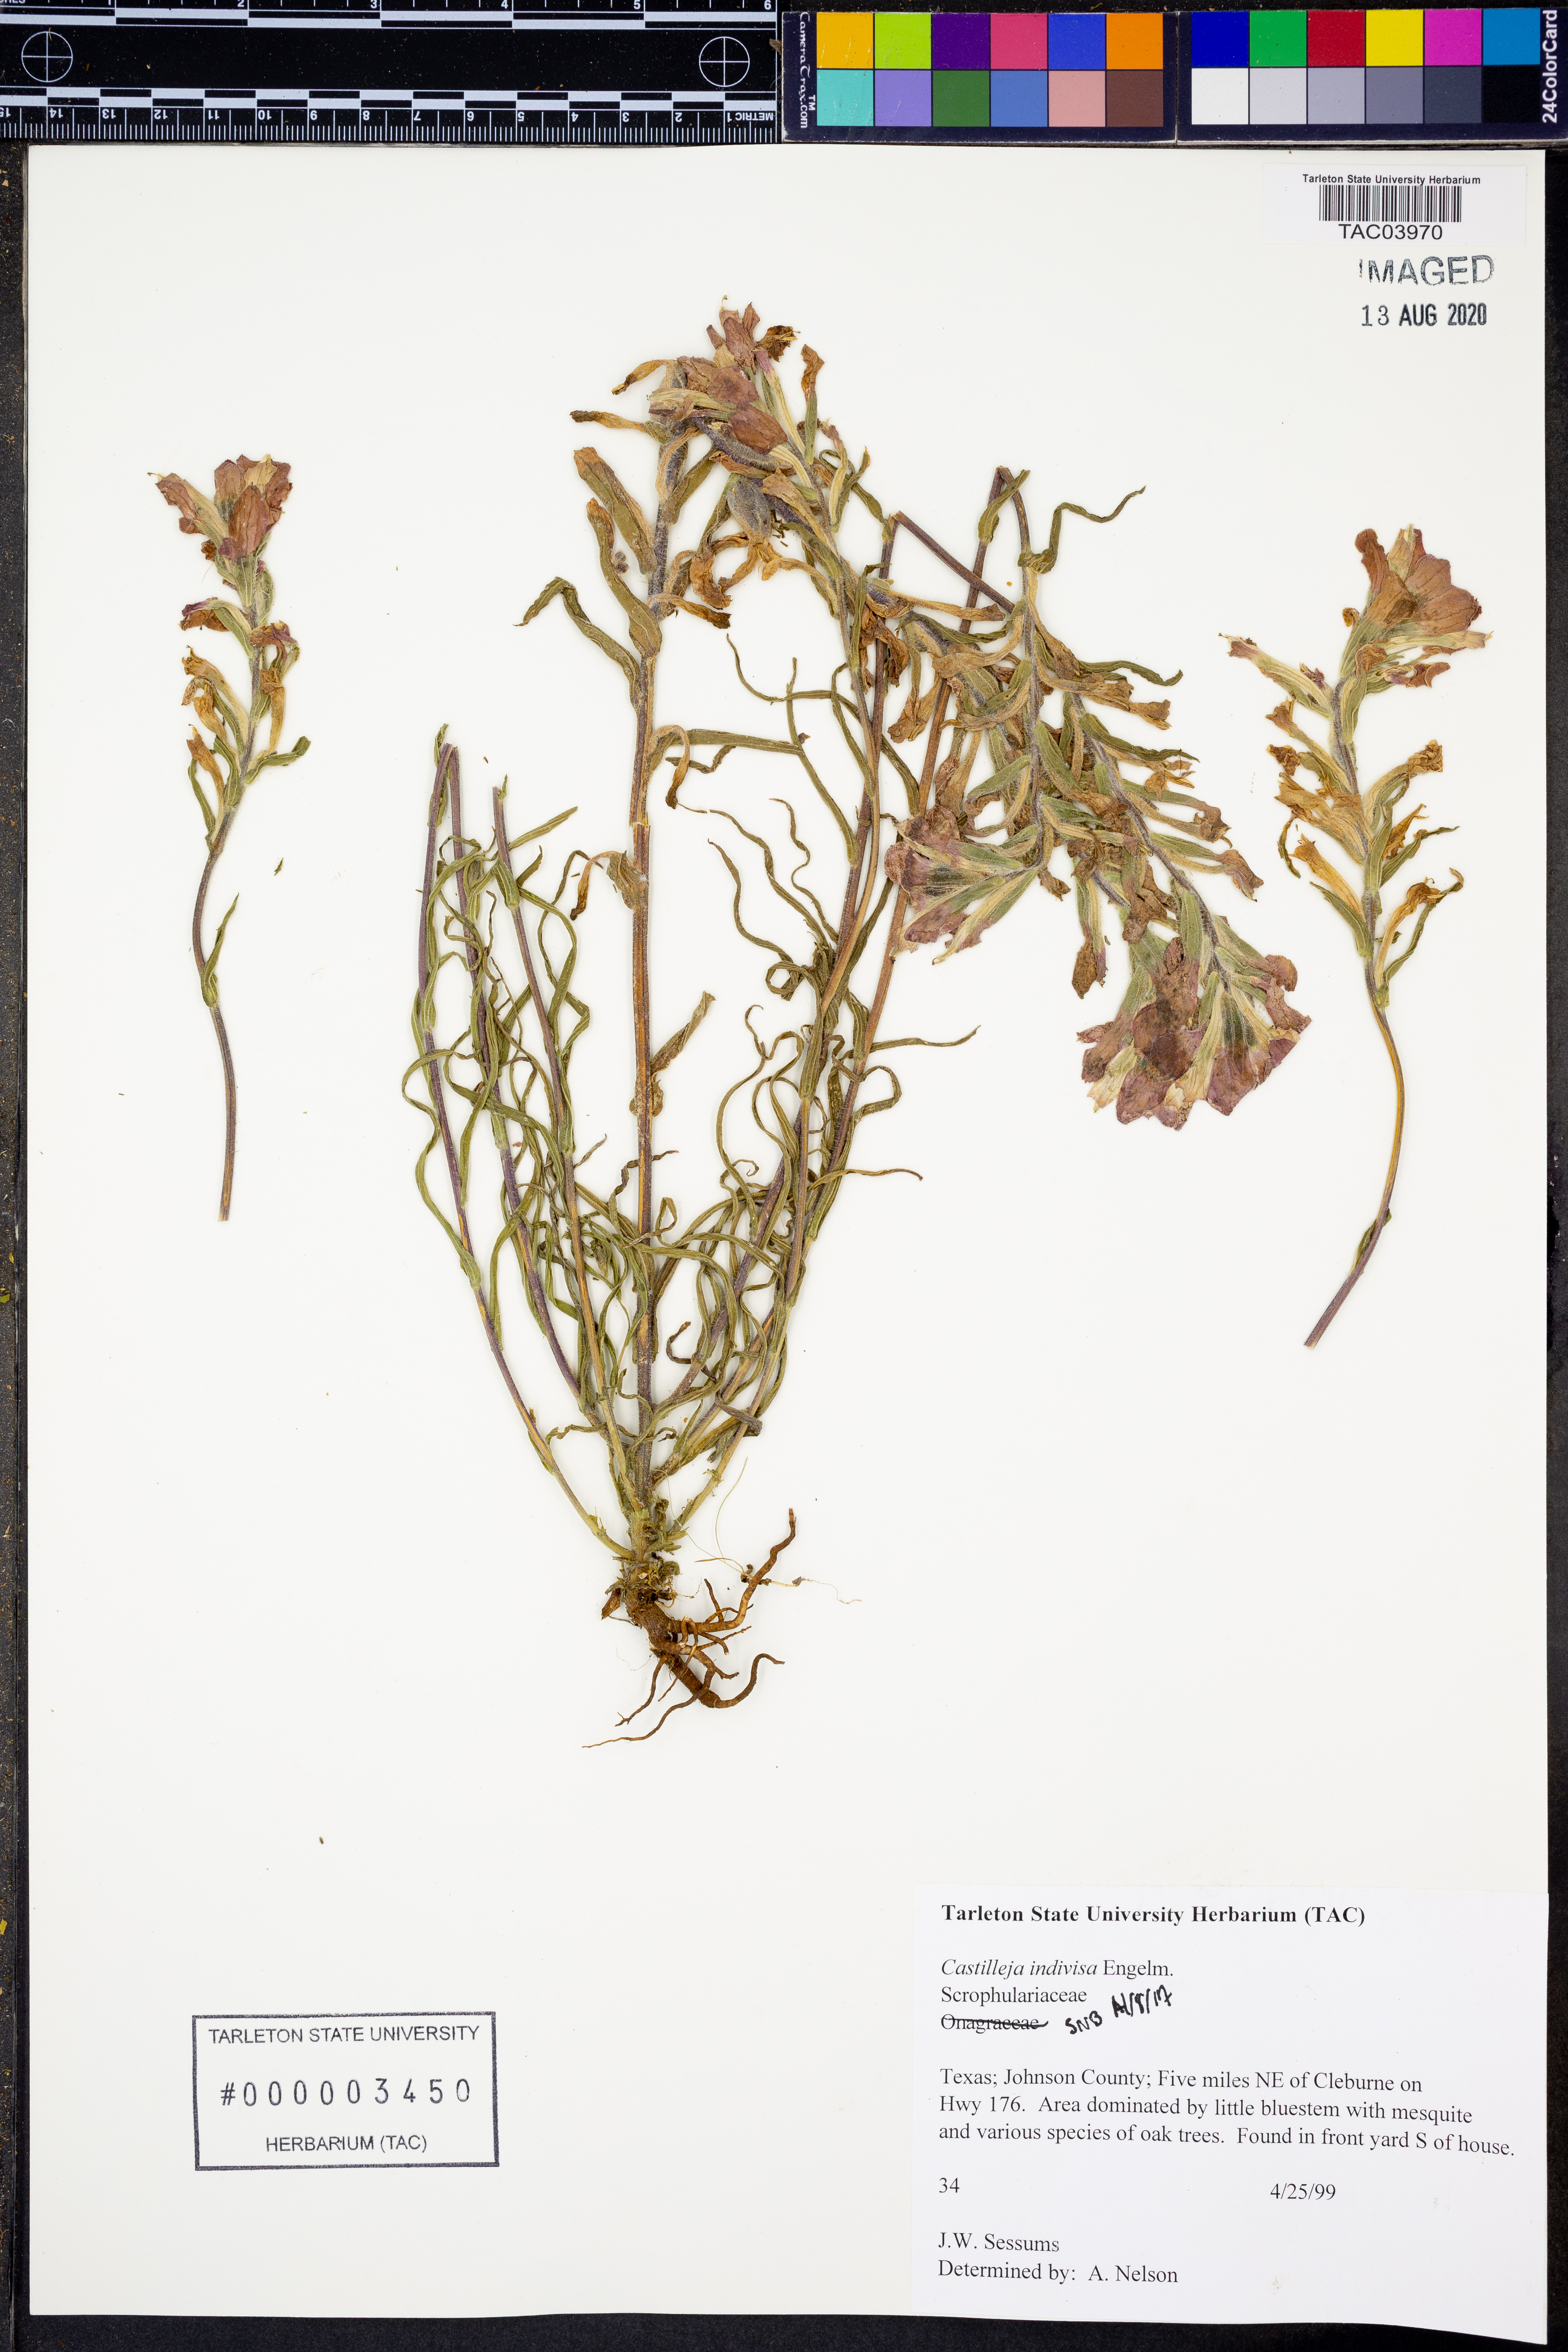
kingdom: Plantae
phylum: Tracheophyta
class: Magnoliopsida
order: Lamiales
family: Orobanchaceae
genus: Castilleja
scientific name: Castilleja indivisa
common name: Texas paintbrush
